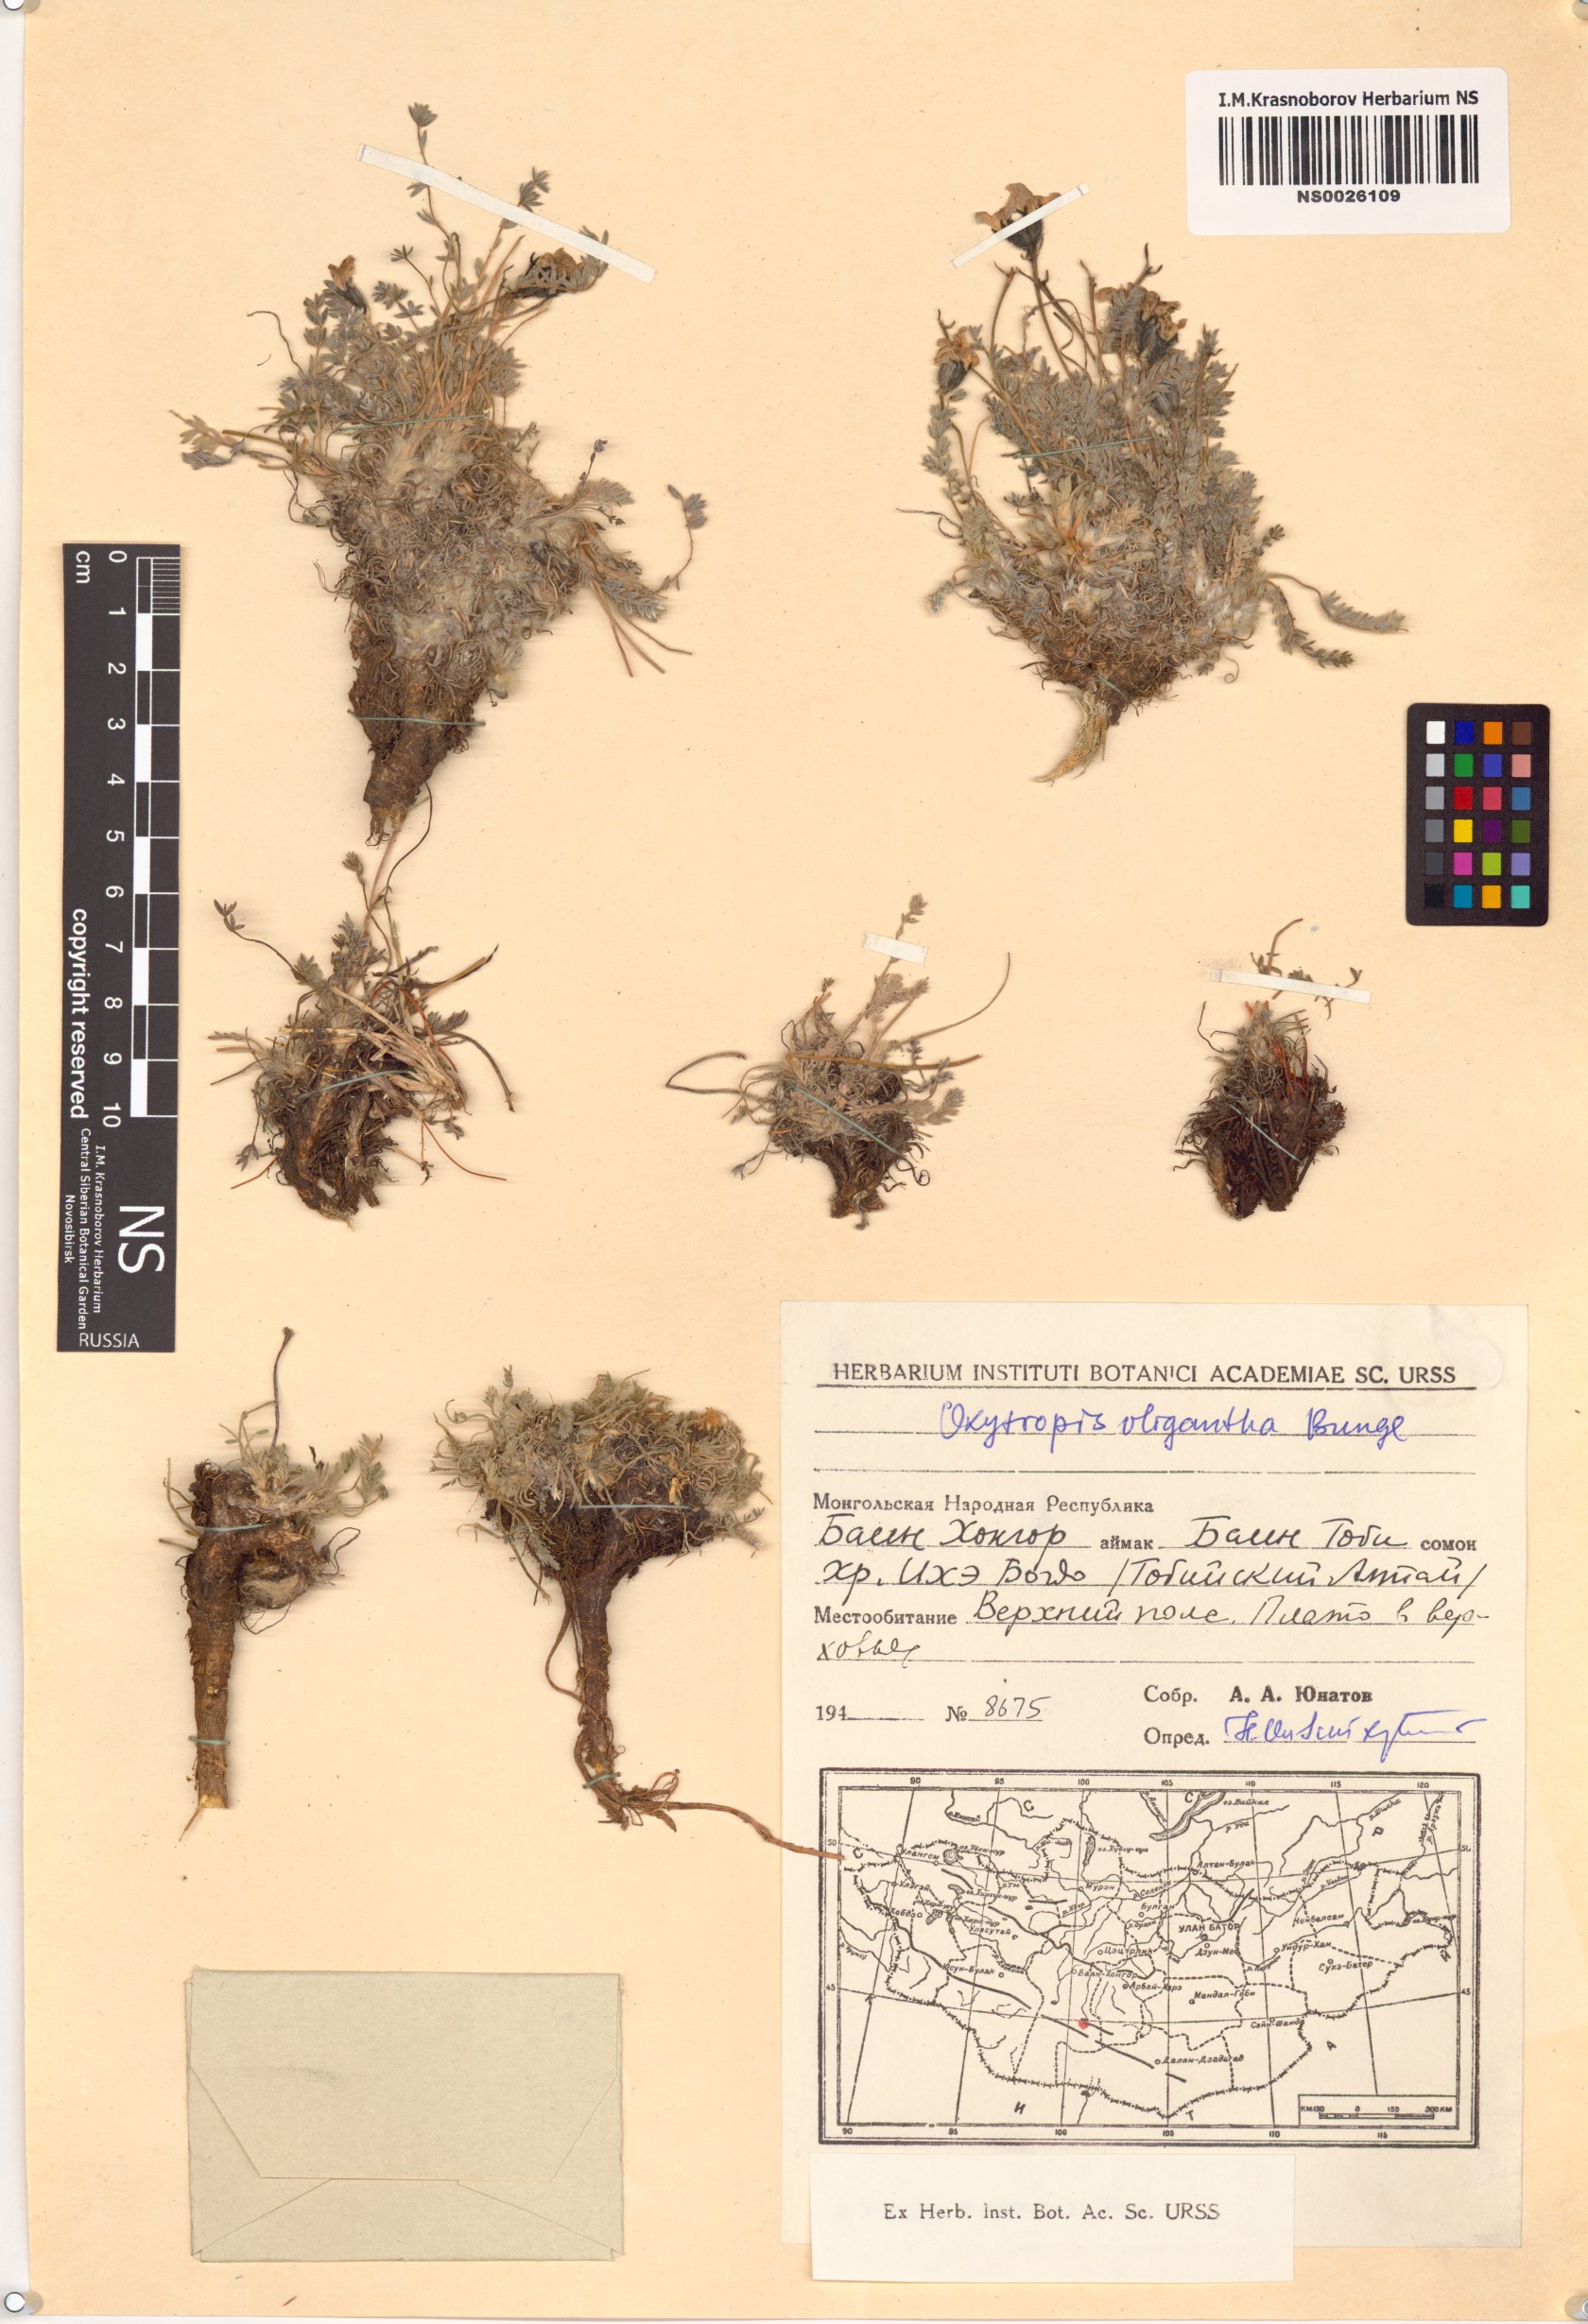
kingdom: Plantae
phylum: Tracheophyta
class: Magnoliopsida
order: Fabales
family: Fabaceae
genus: Oxytropis
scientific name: Oxytropis oligantha
